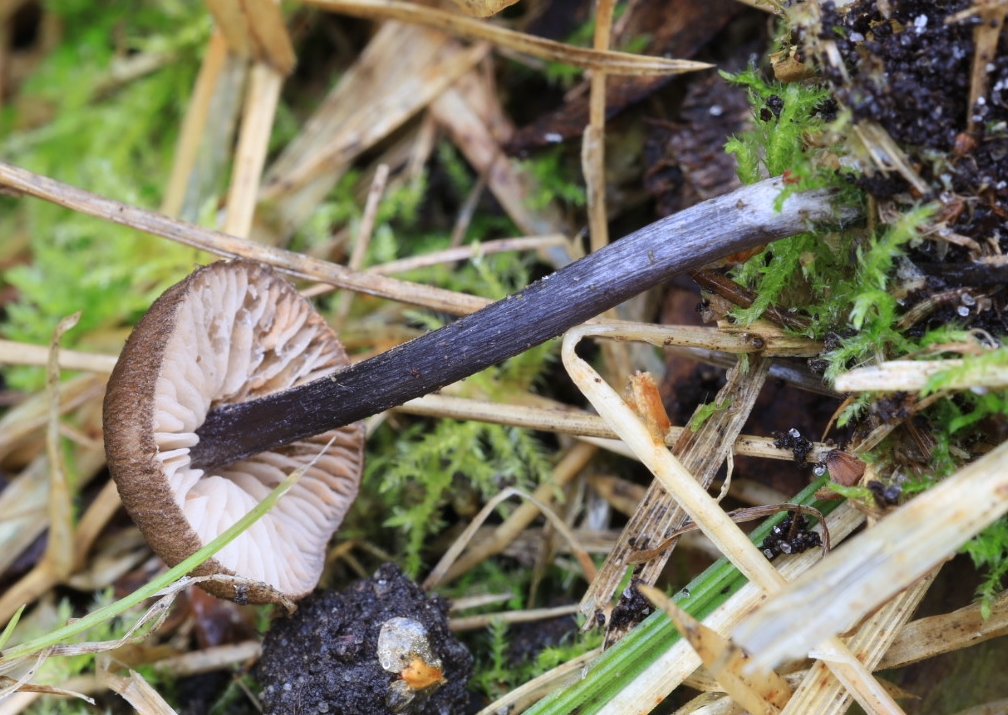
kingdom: Fungi
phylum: Basidiomycota
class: Agaricomycetes
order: Agaricales
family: Entolomataceae
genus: Entoloma
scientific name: Entoloma lampropus
